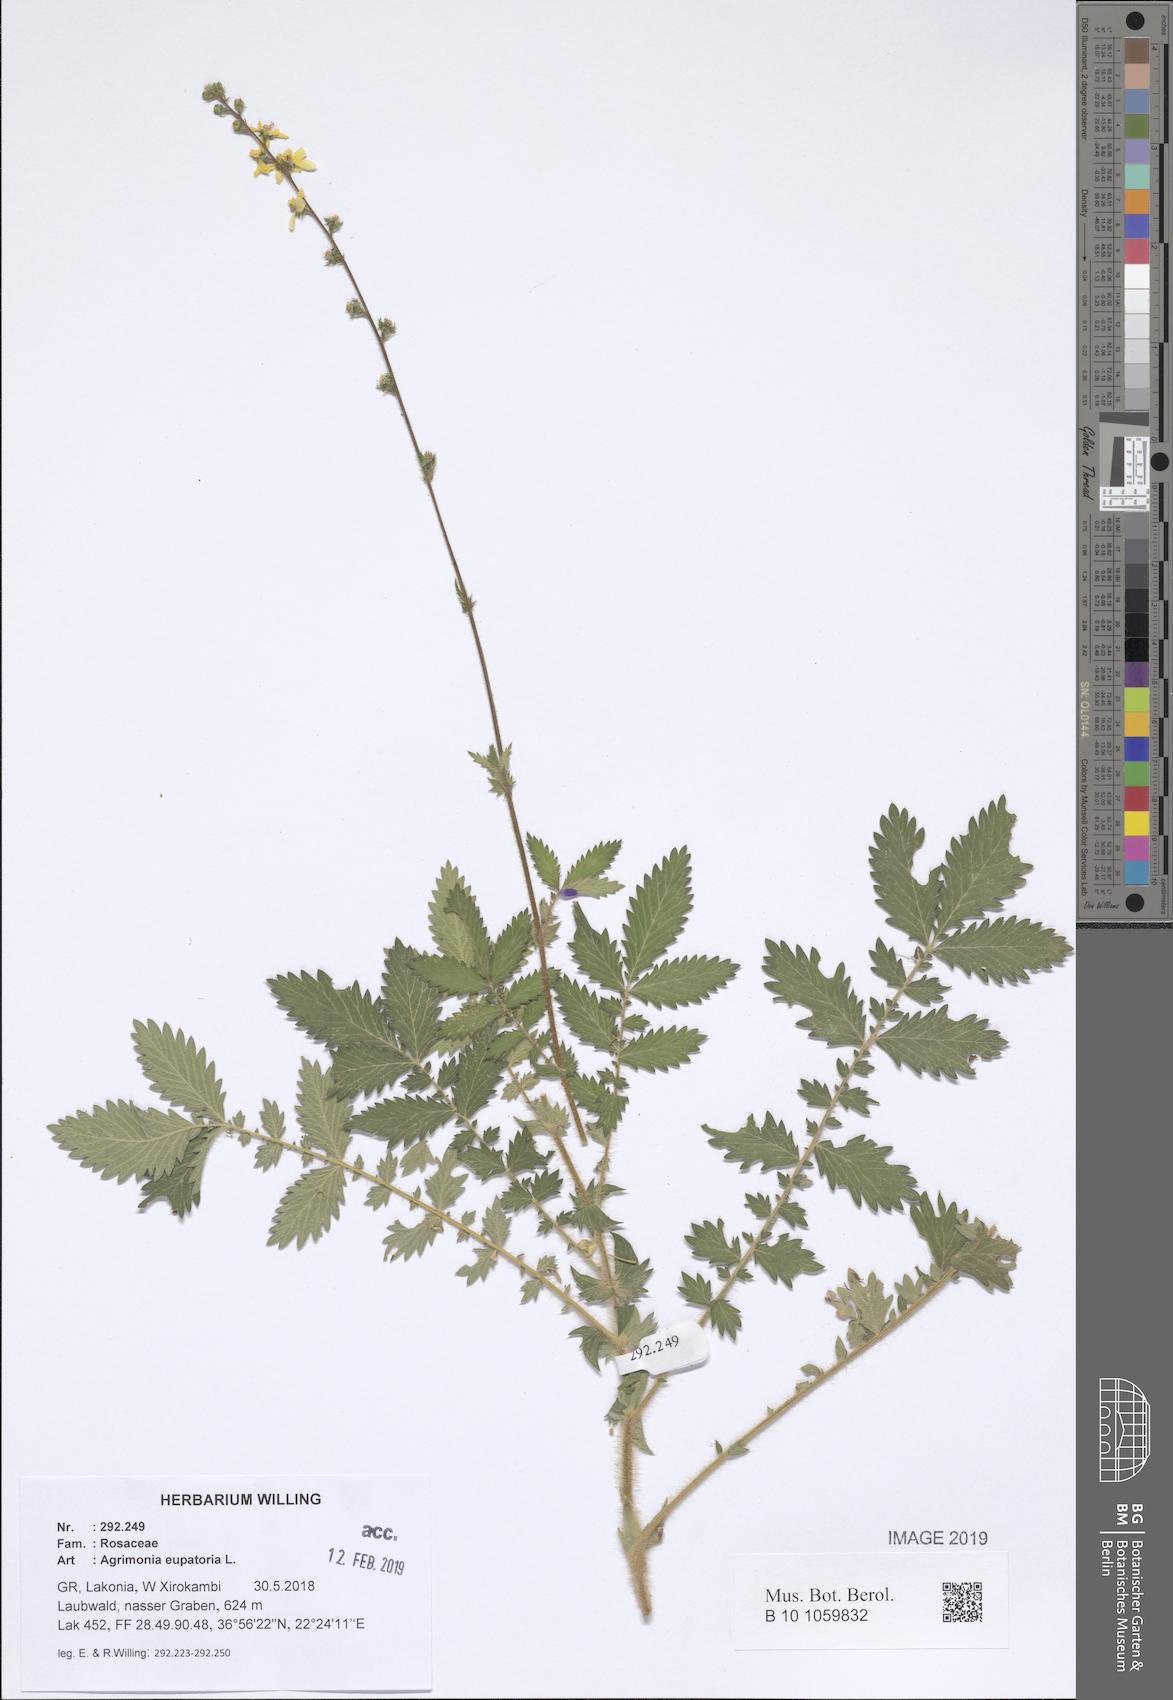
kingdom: Plantae
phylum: Tracheophyta
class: Magnoliopsida
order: Rosales
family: Rosaceae
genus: Agrimonia
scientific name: Agrimonia eupatoria
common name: Agrimony
